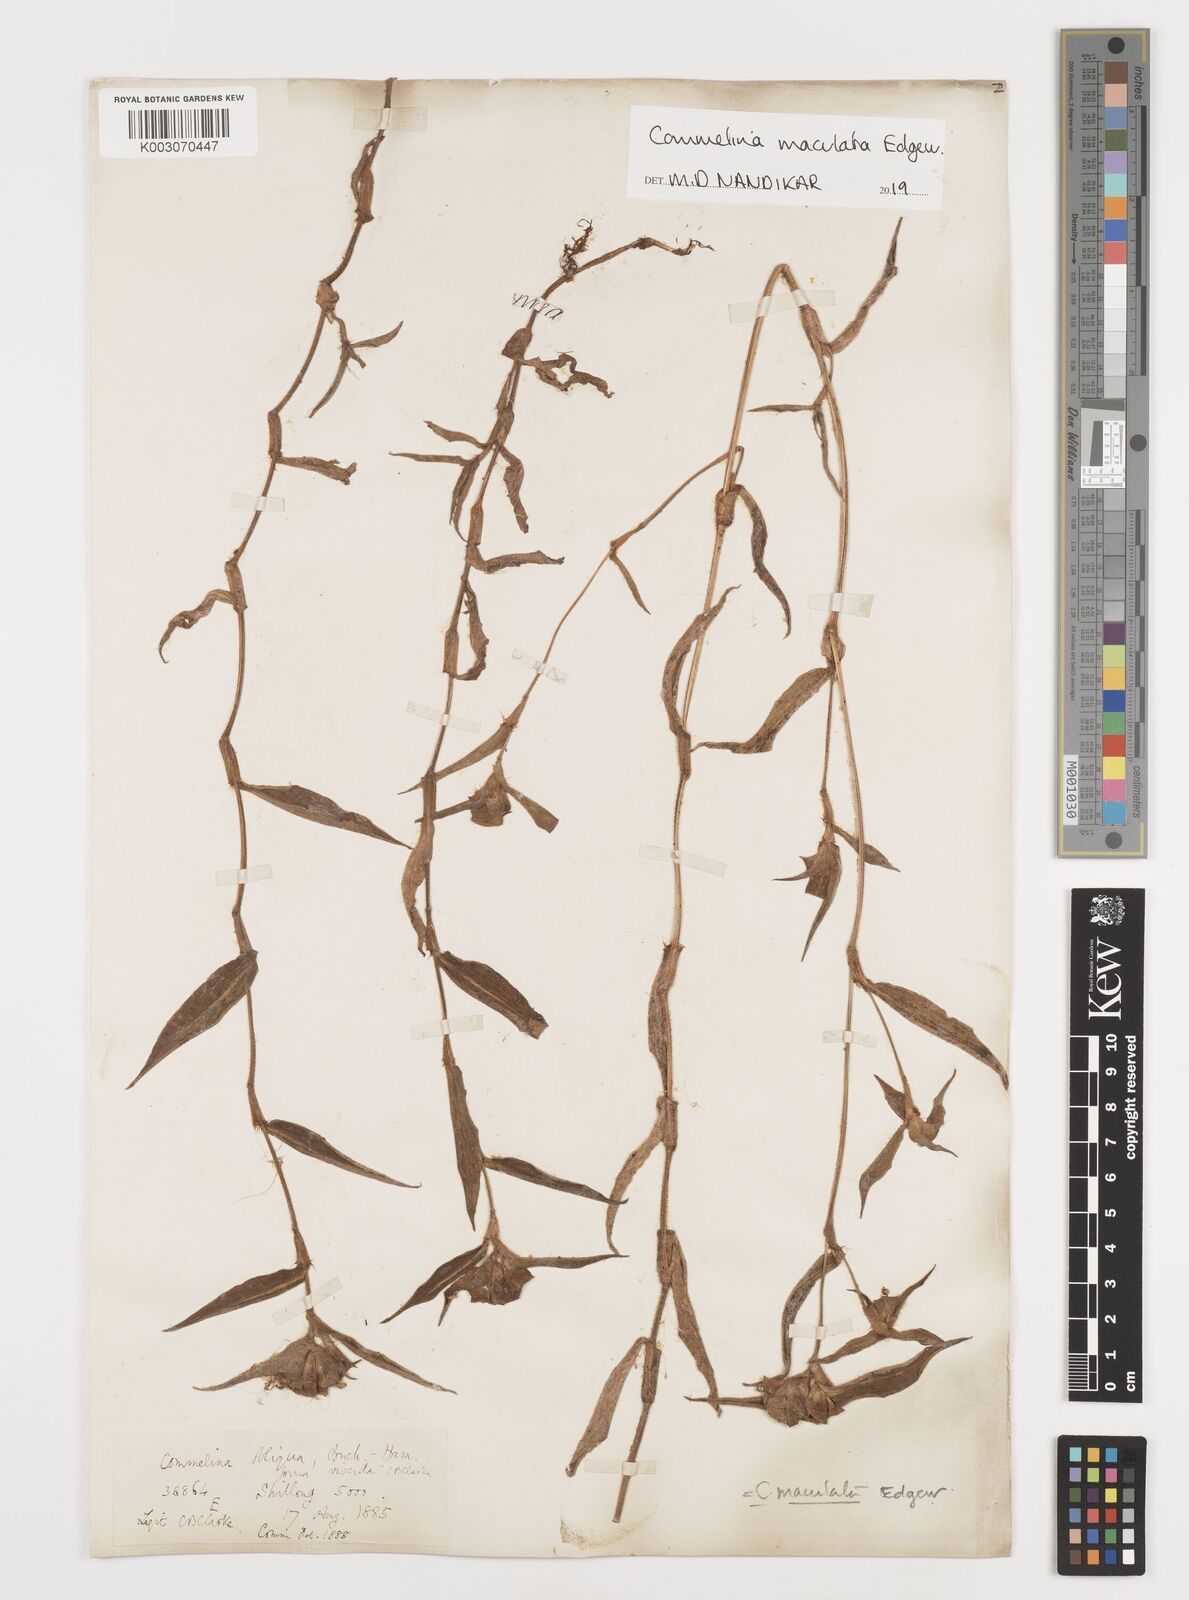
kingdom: Plantae
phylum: Tracheophyta
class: Liliopsida
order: Commelinales
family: Commelinaceae
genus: Commelina
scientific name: Commelina maculata
